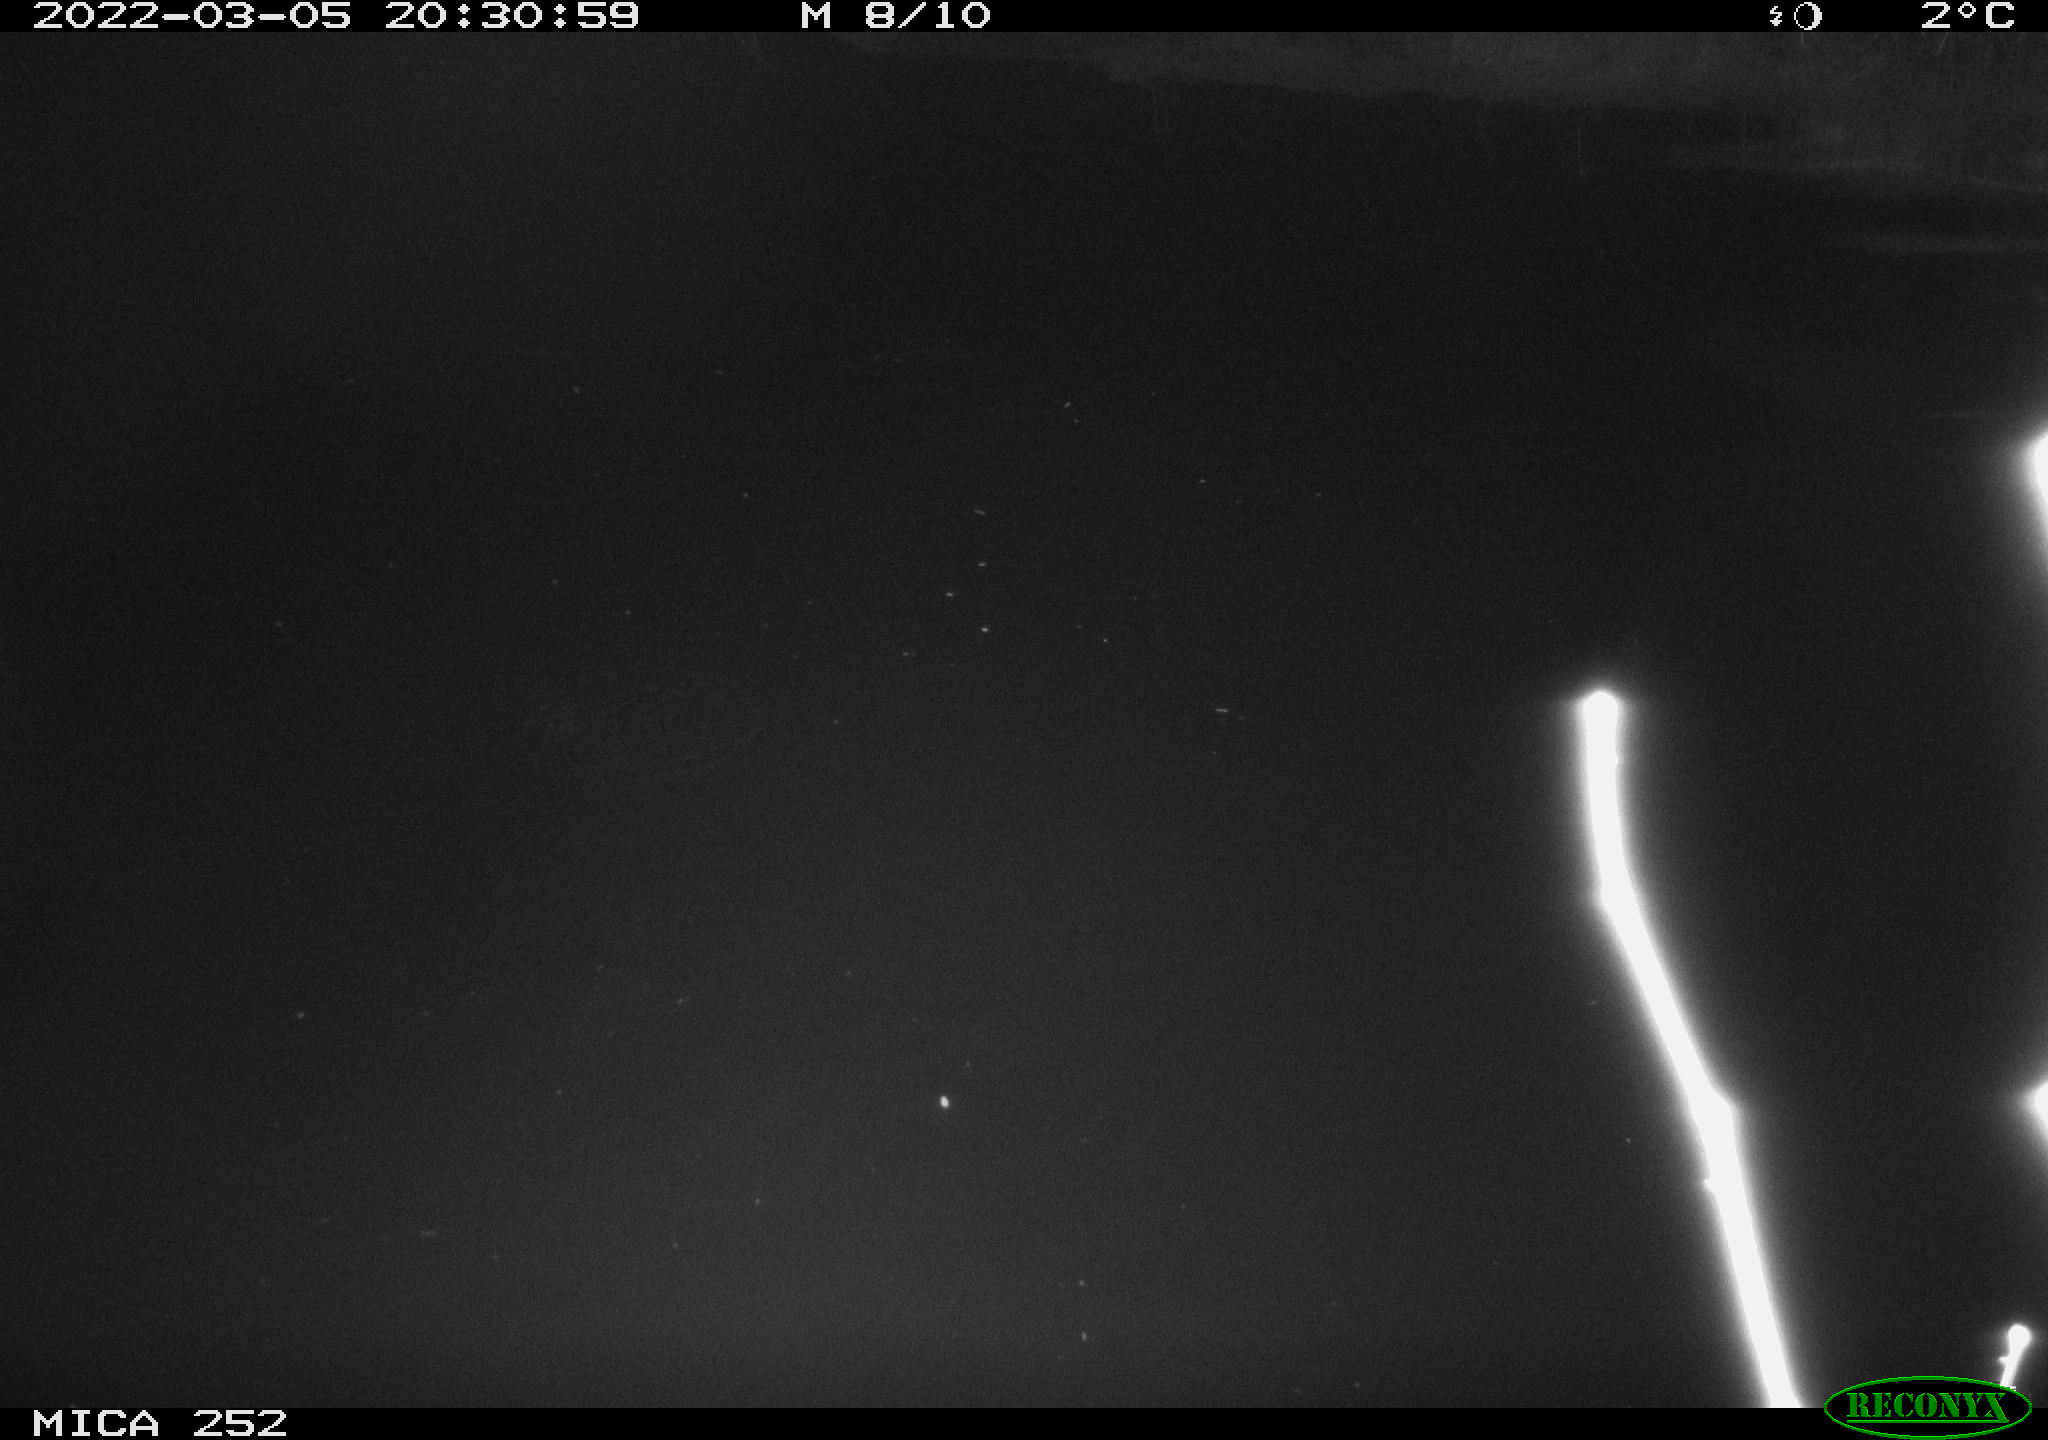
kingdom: Animalia
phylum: Chordata
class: Mammalia
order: Rodentia
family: Castoridae
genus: Castor
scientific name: Castor fiber
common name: Eurasian beaver
